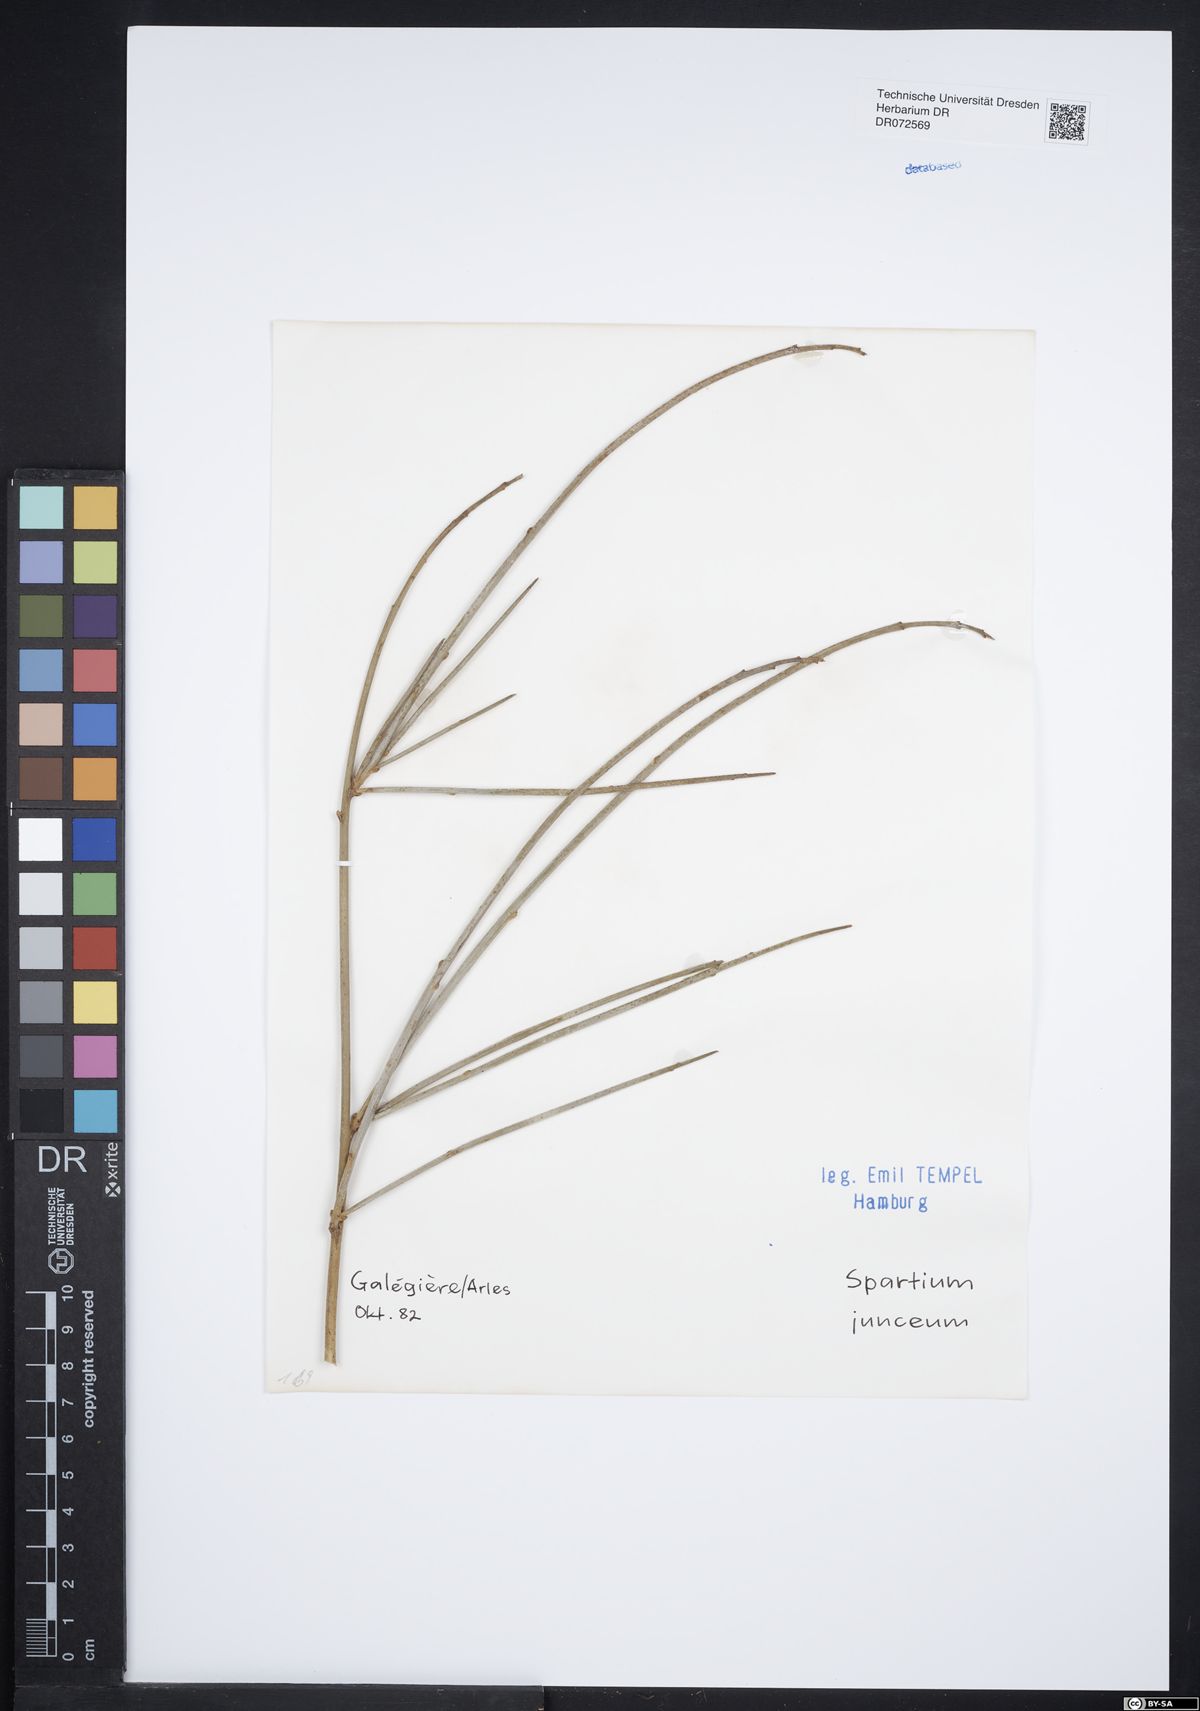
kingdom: Plantae
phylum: Tracheophyta
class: Magnoliopsida
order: Fabales
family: Fabaceae
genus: Spartium
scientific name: Spartium junceum
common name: Spanish broom
